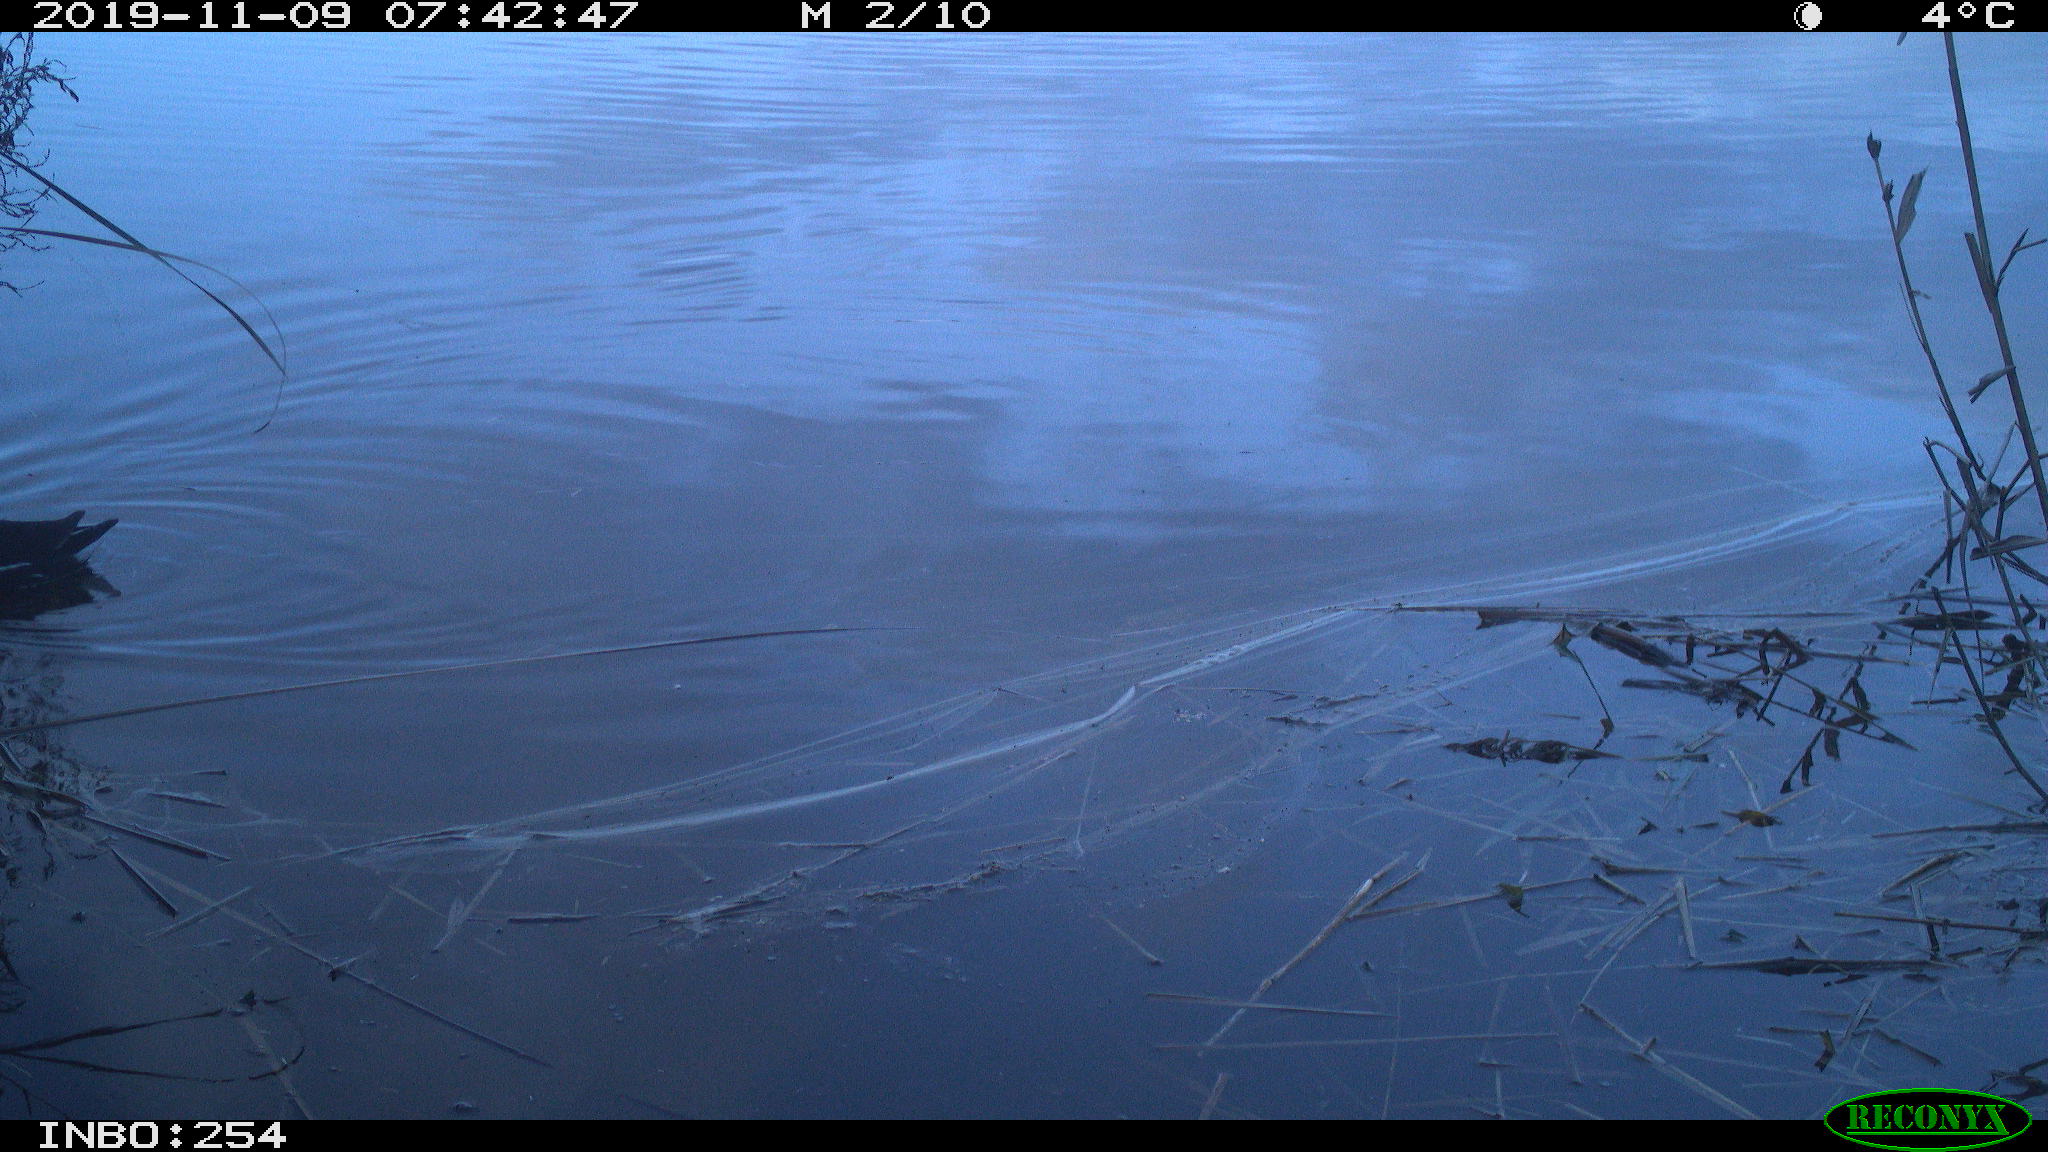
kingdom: Animalia
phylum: Chordata
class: Aves
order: Gruiformes
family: Rallidae
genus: Gallinula
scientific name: Gallinula chloropus
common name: Common moorhen
